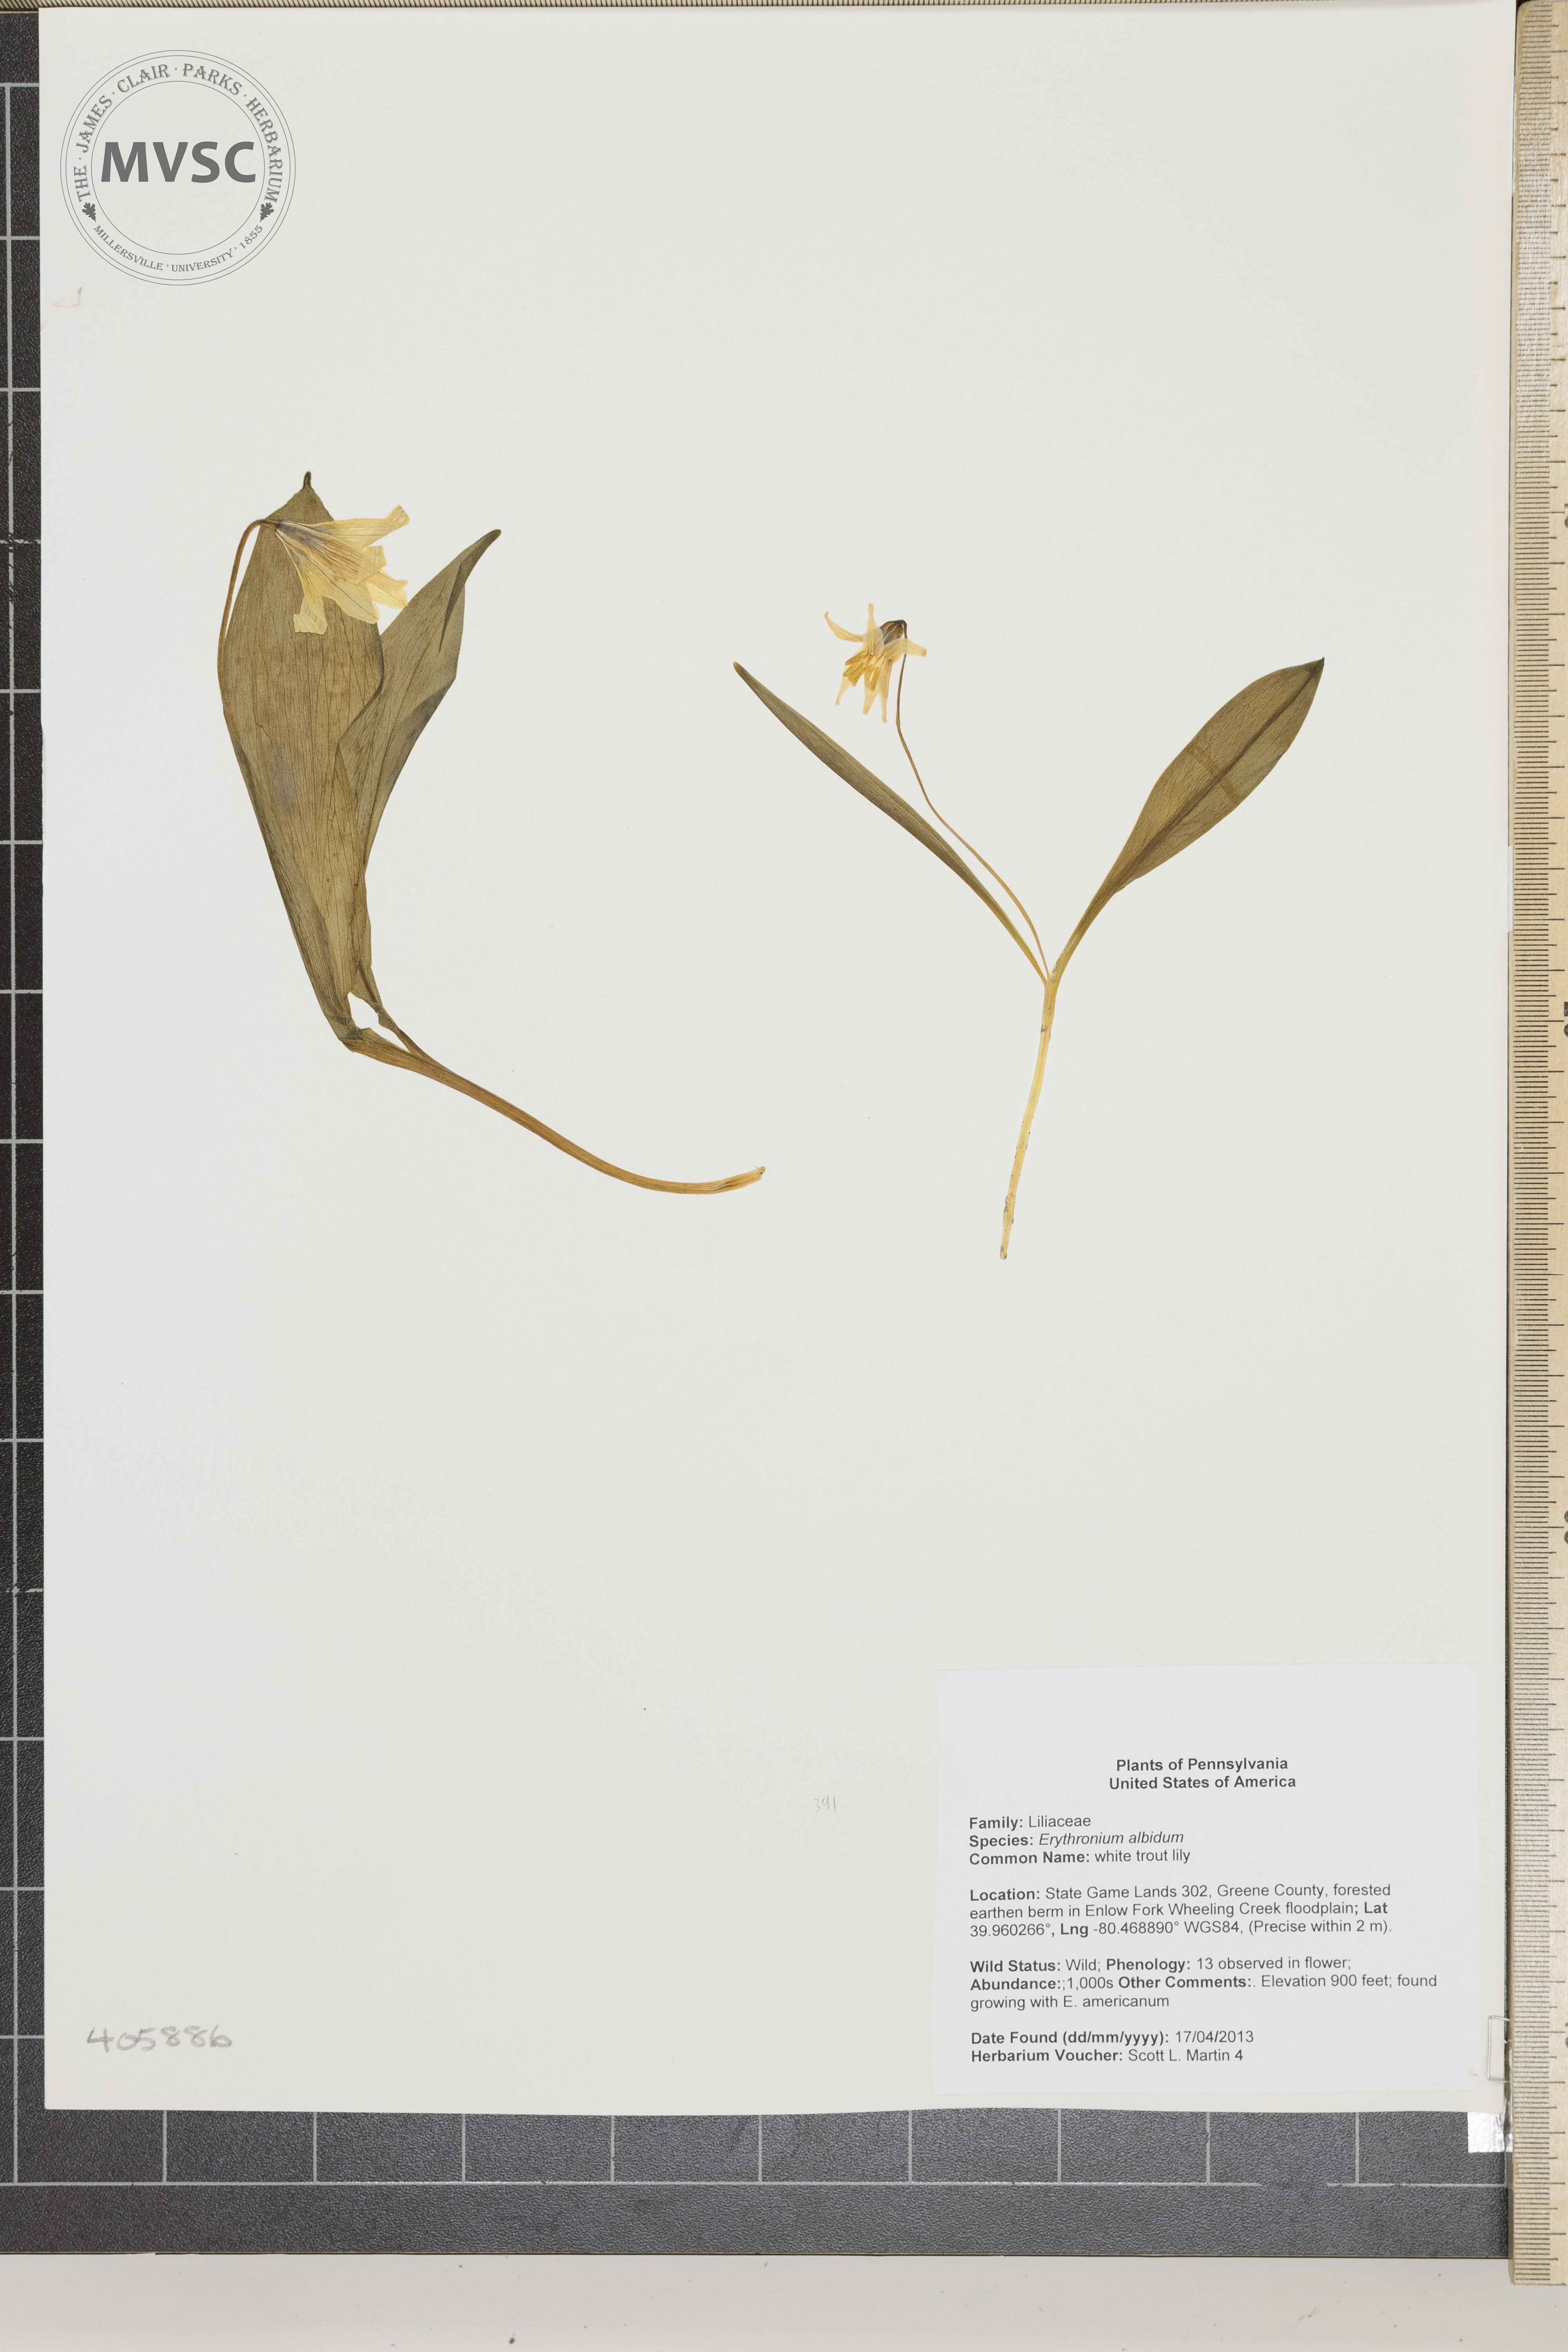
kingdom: Plantae
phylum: Tracheophyta
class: Liliopsida
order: Liliales
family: Liliaceae
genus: Erythronium
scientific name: Erythronium albidum
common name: white trout lily
